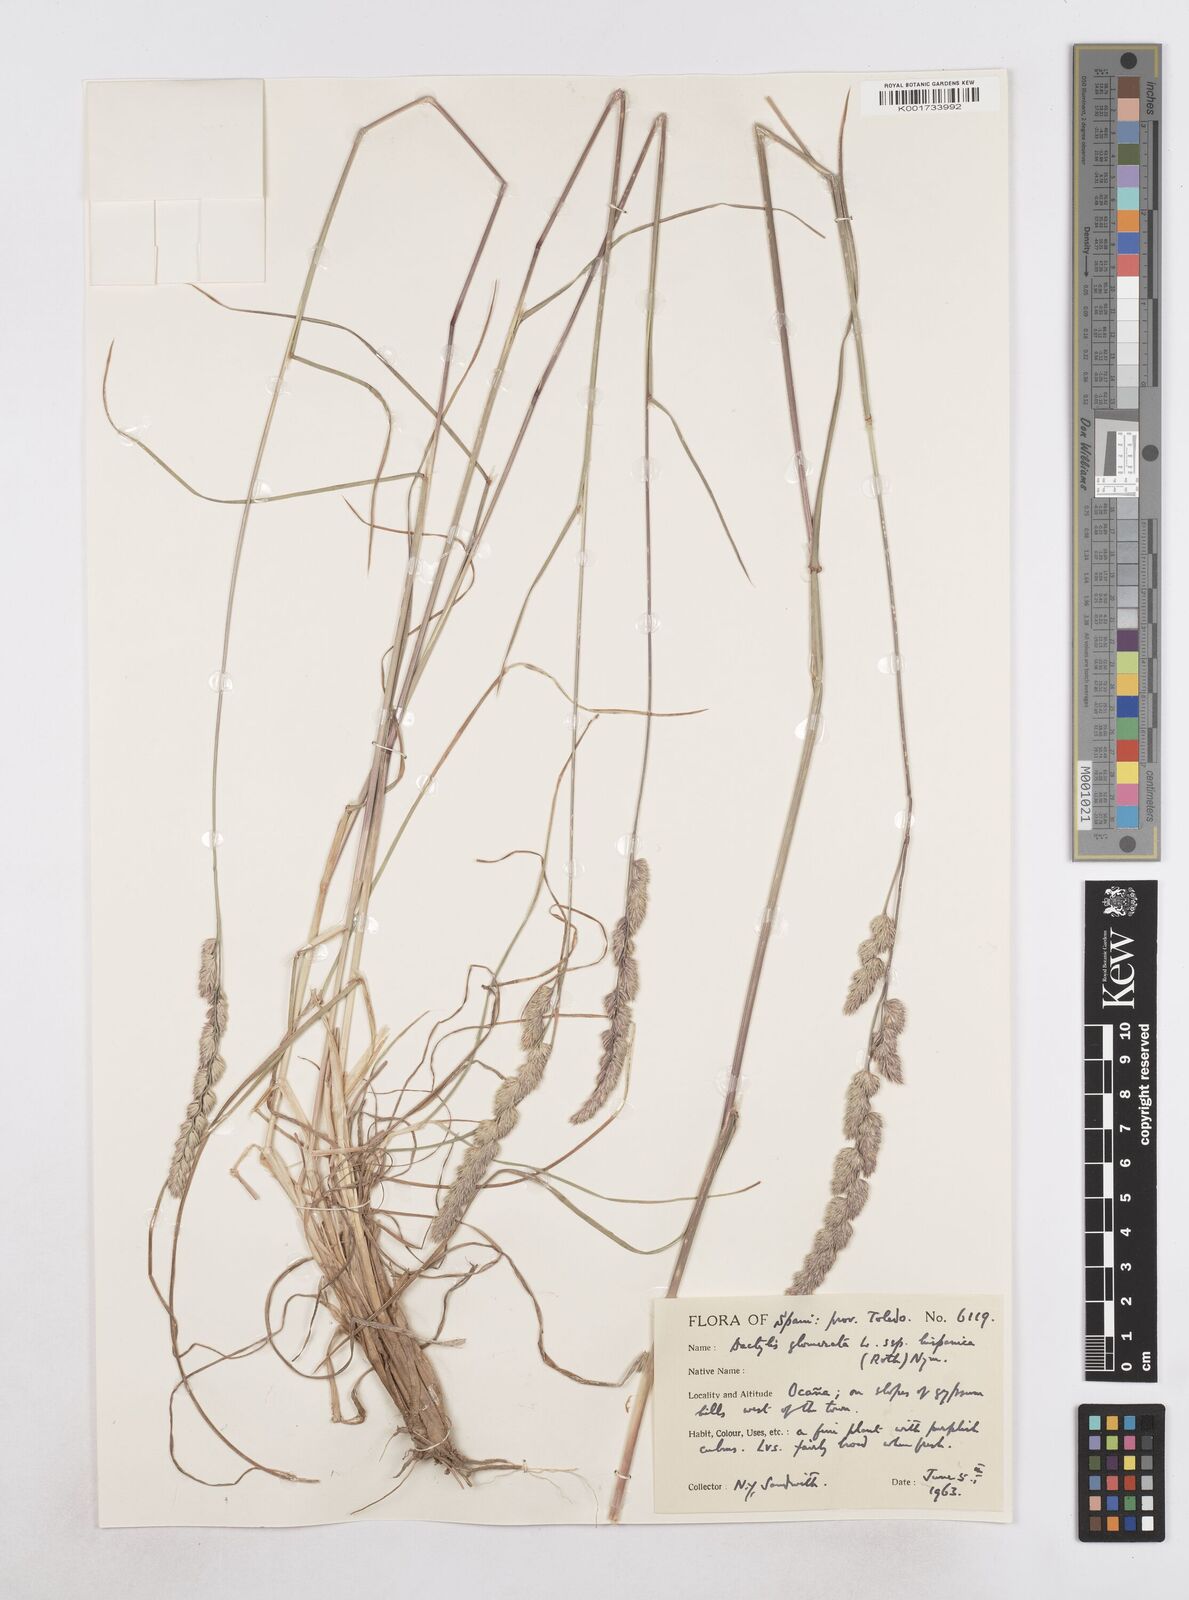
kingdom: Plantae
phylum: Tracheophyta
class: Liliopsida
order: Poales
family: Poaceae
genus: Dactylis
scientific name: Dactylis glomerata
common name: Orchardgrass
